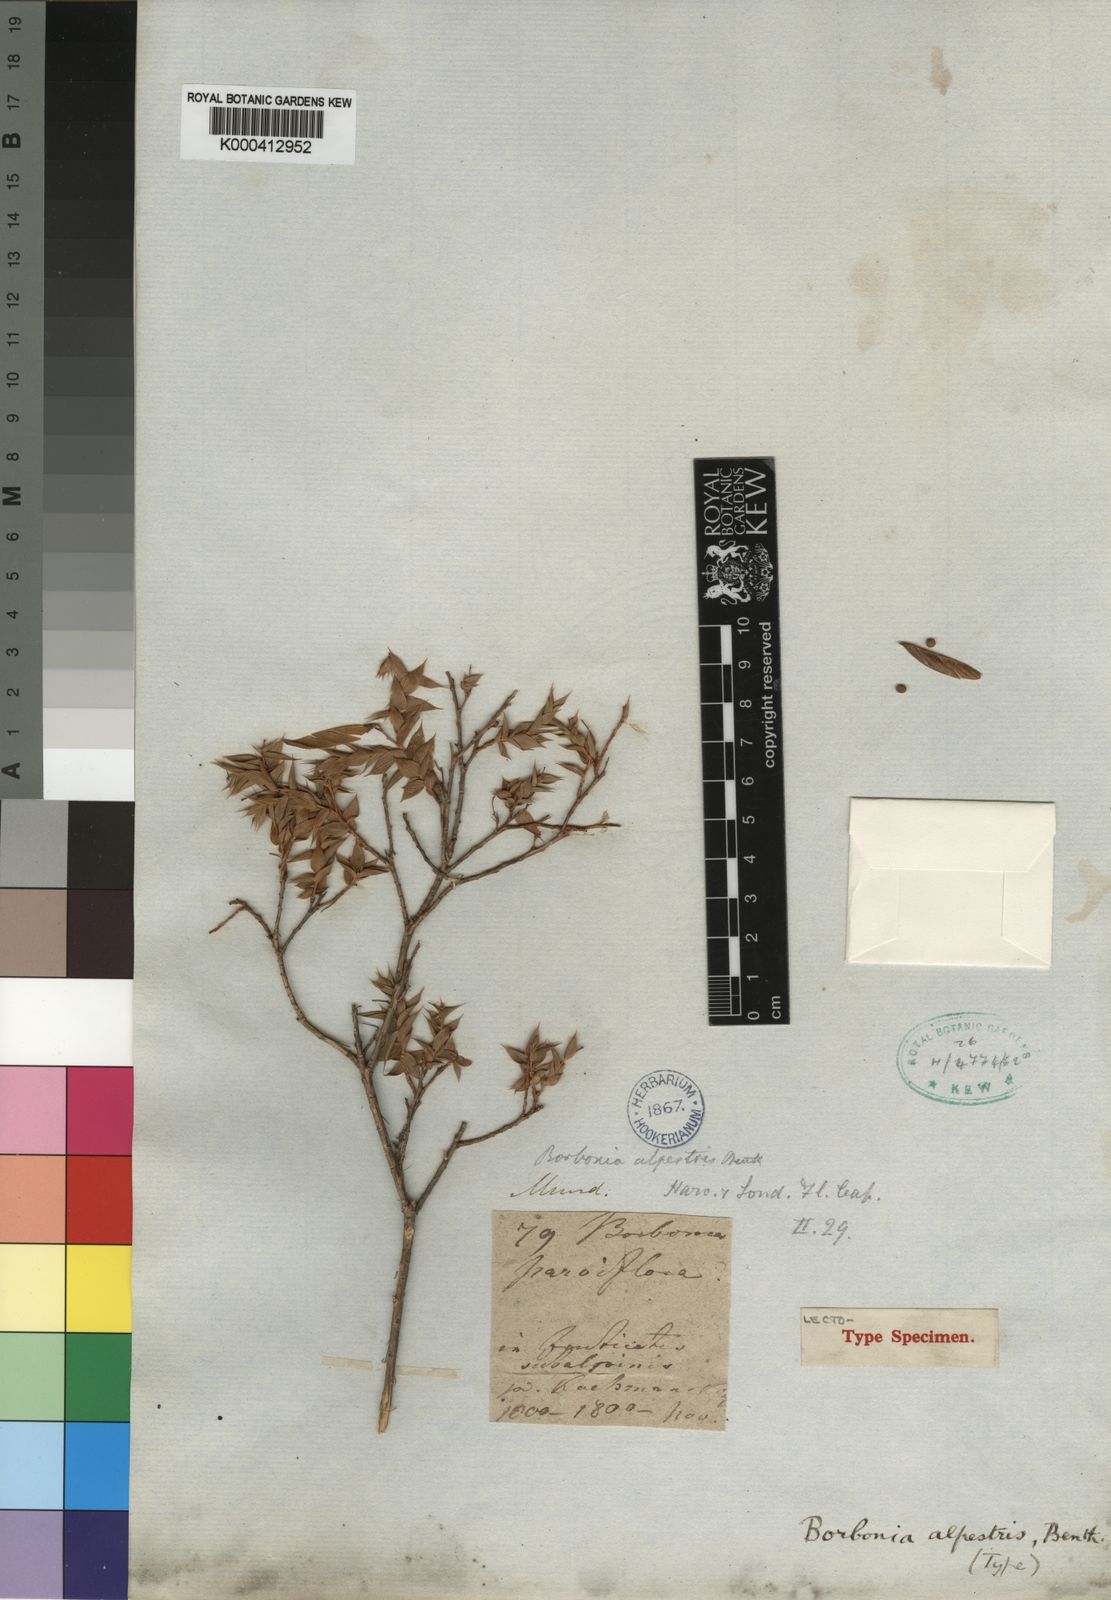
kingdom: Plantae
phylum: Tracheophyta
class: Magnoliopsida
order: Fabales
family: Fabaceae
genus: Aspalathus
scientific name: Aspalathus alpestris
